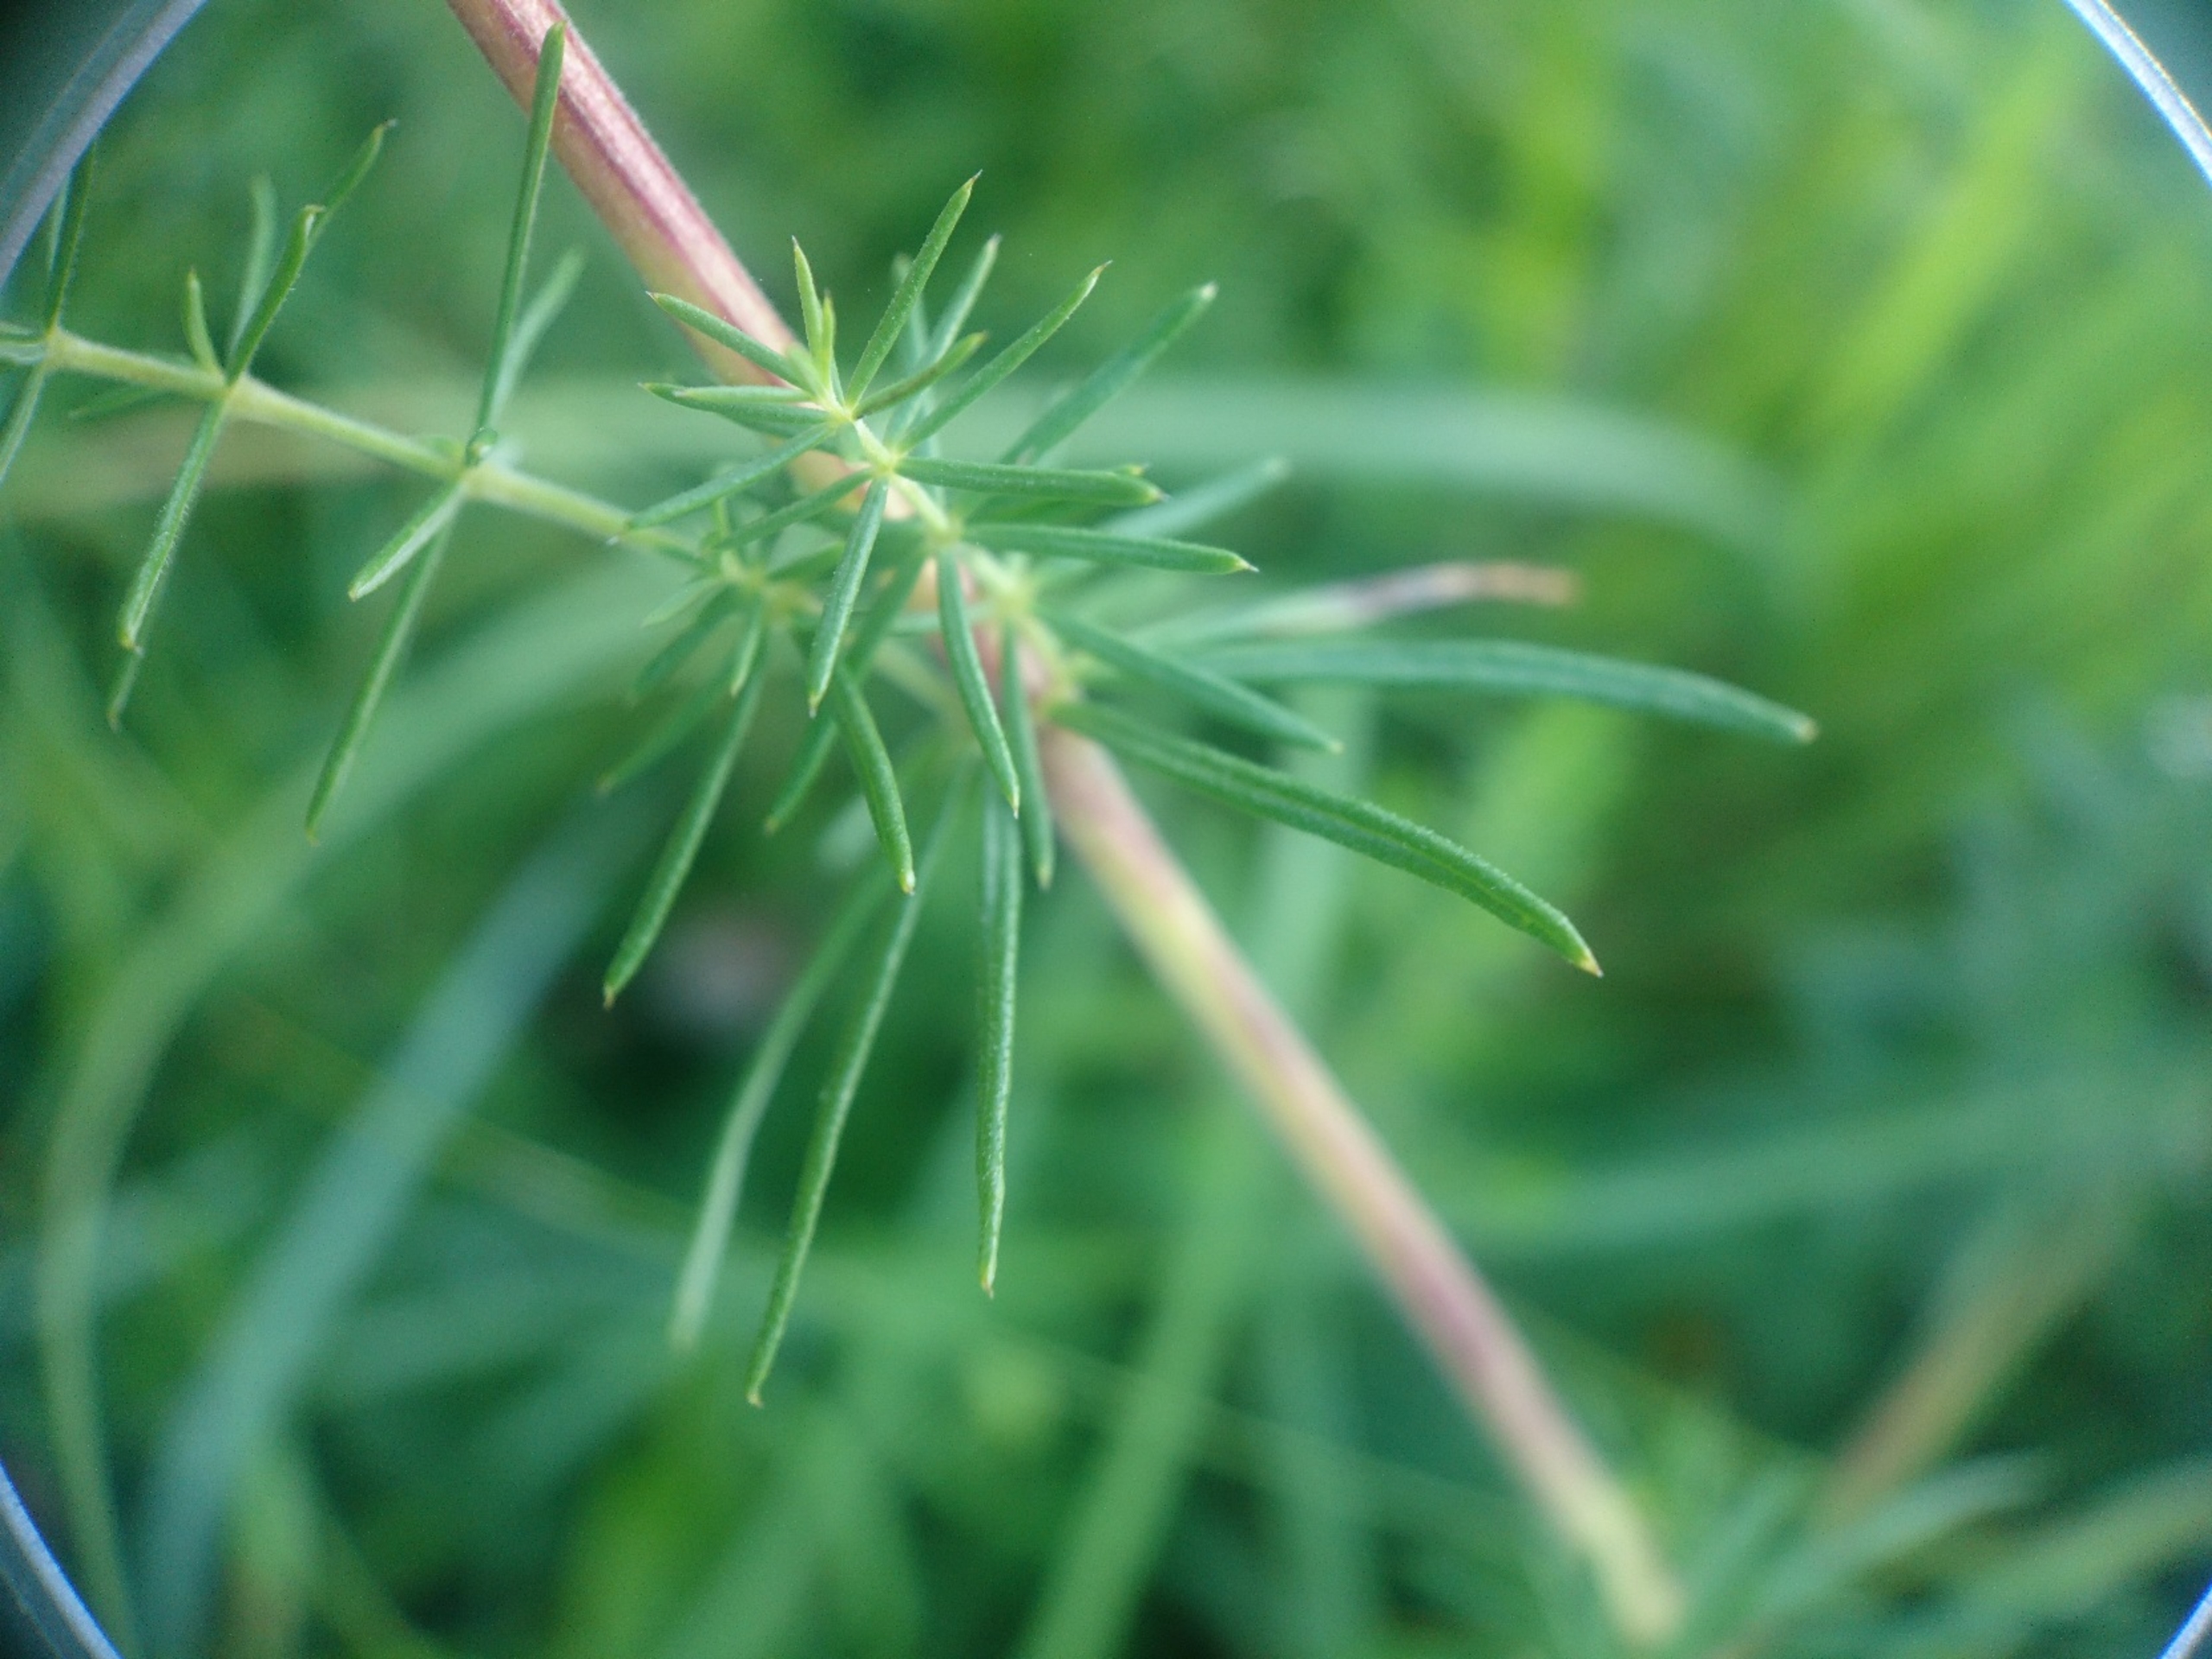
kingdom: Plantae
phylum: Tracheophyta
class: Magnoliopsida
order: Gentianales
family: Rubiaceae
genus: Galium
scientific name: Galium verum
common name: Gul snerre
